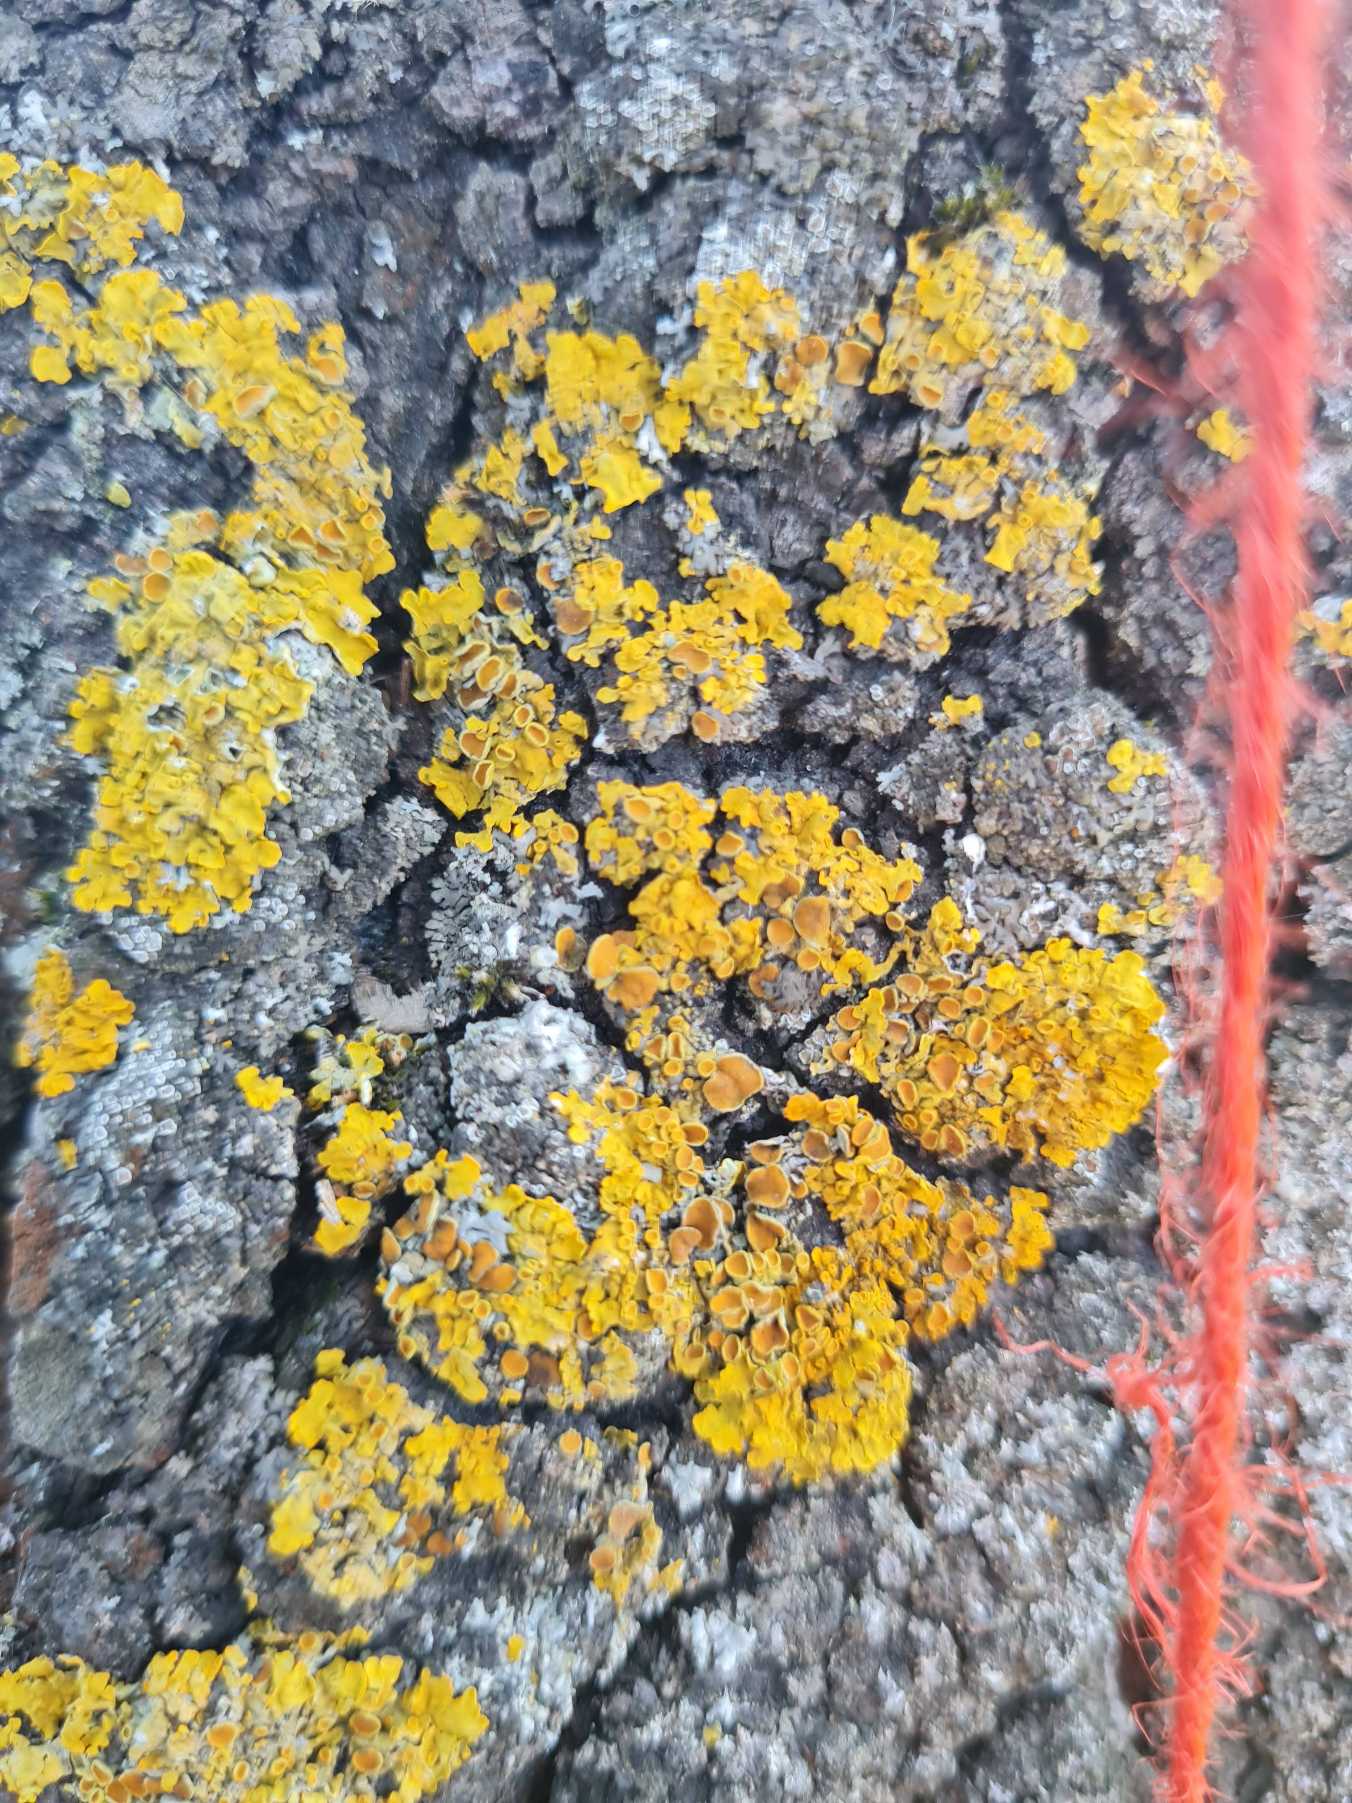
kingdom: Fungi
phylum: Ascomycota
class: Lecanoromycetes
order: Teloschistales
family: Teloschistaceae
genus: Xanthoria
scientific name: Xanthoria parietina
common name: Almindelig væggelav
